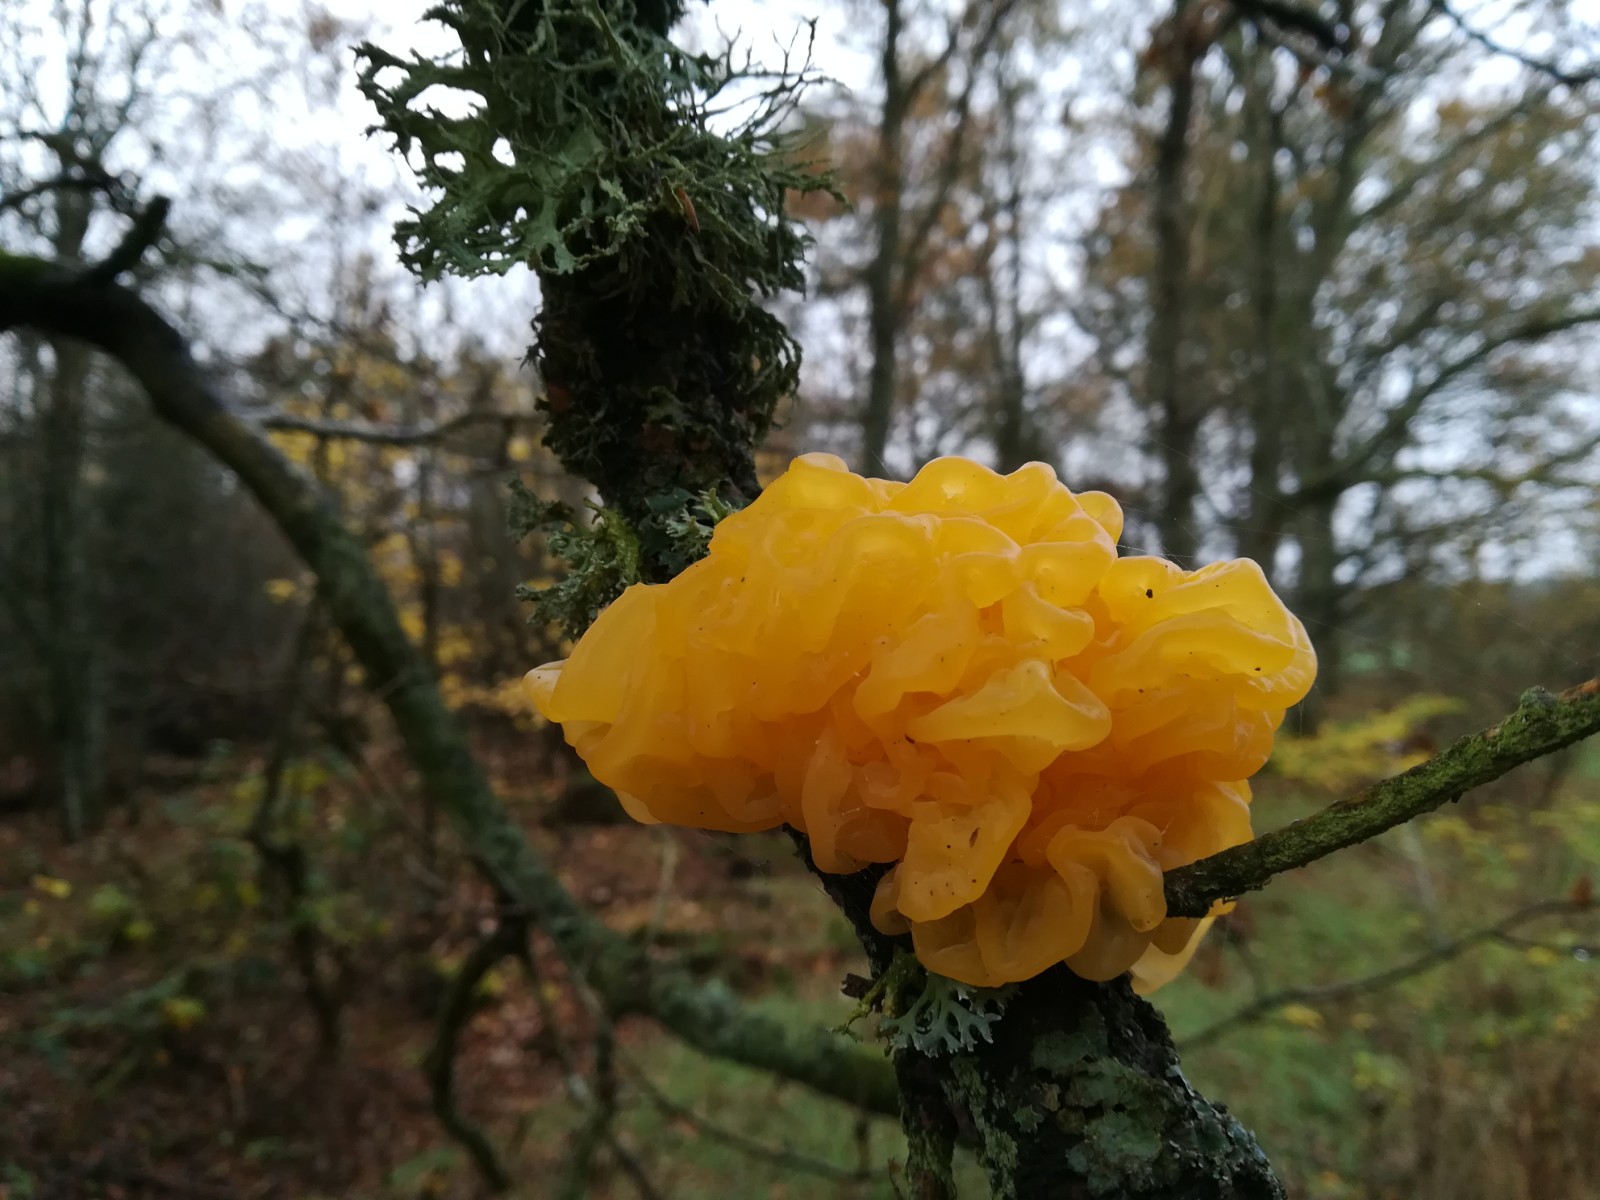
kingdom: Fungi
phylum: Basidiomycota
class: Tremellomycetes
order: Tremellales
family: Tremellaceae
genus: Tremella
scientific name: Tremella mesenterica
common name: gul bævresvamp
